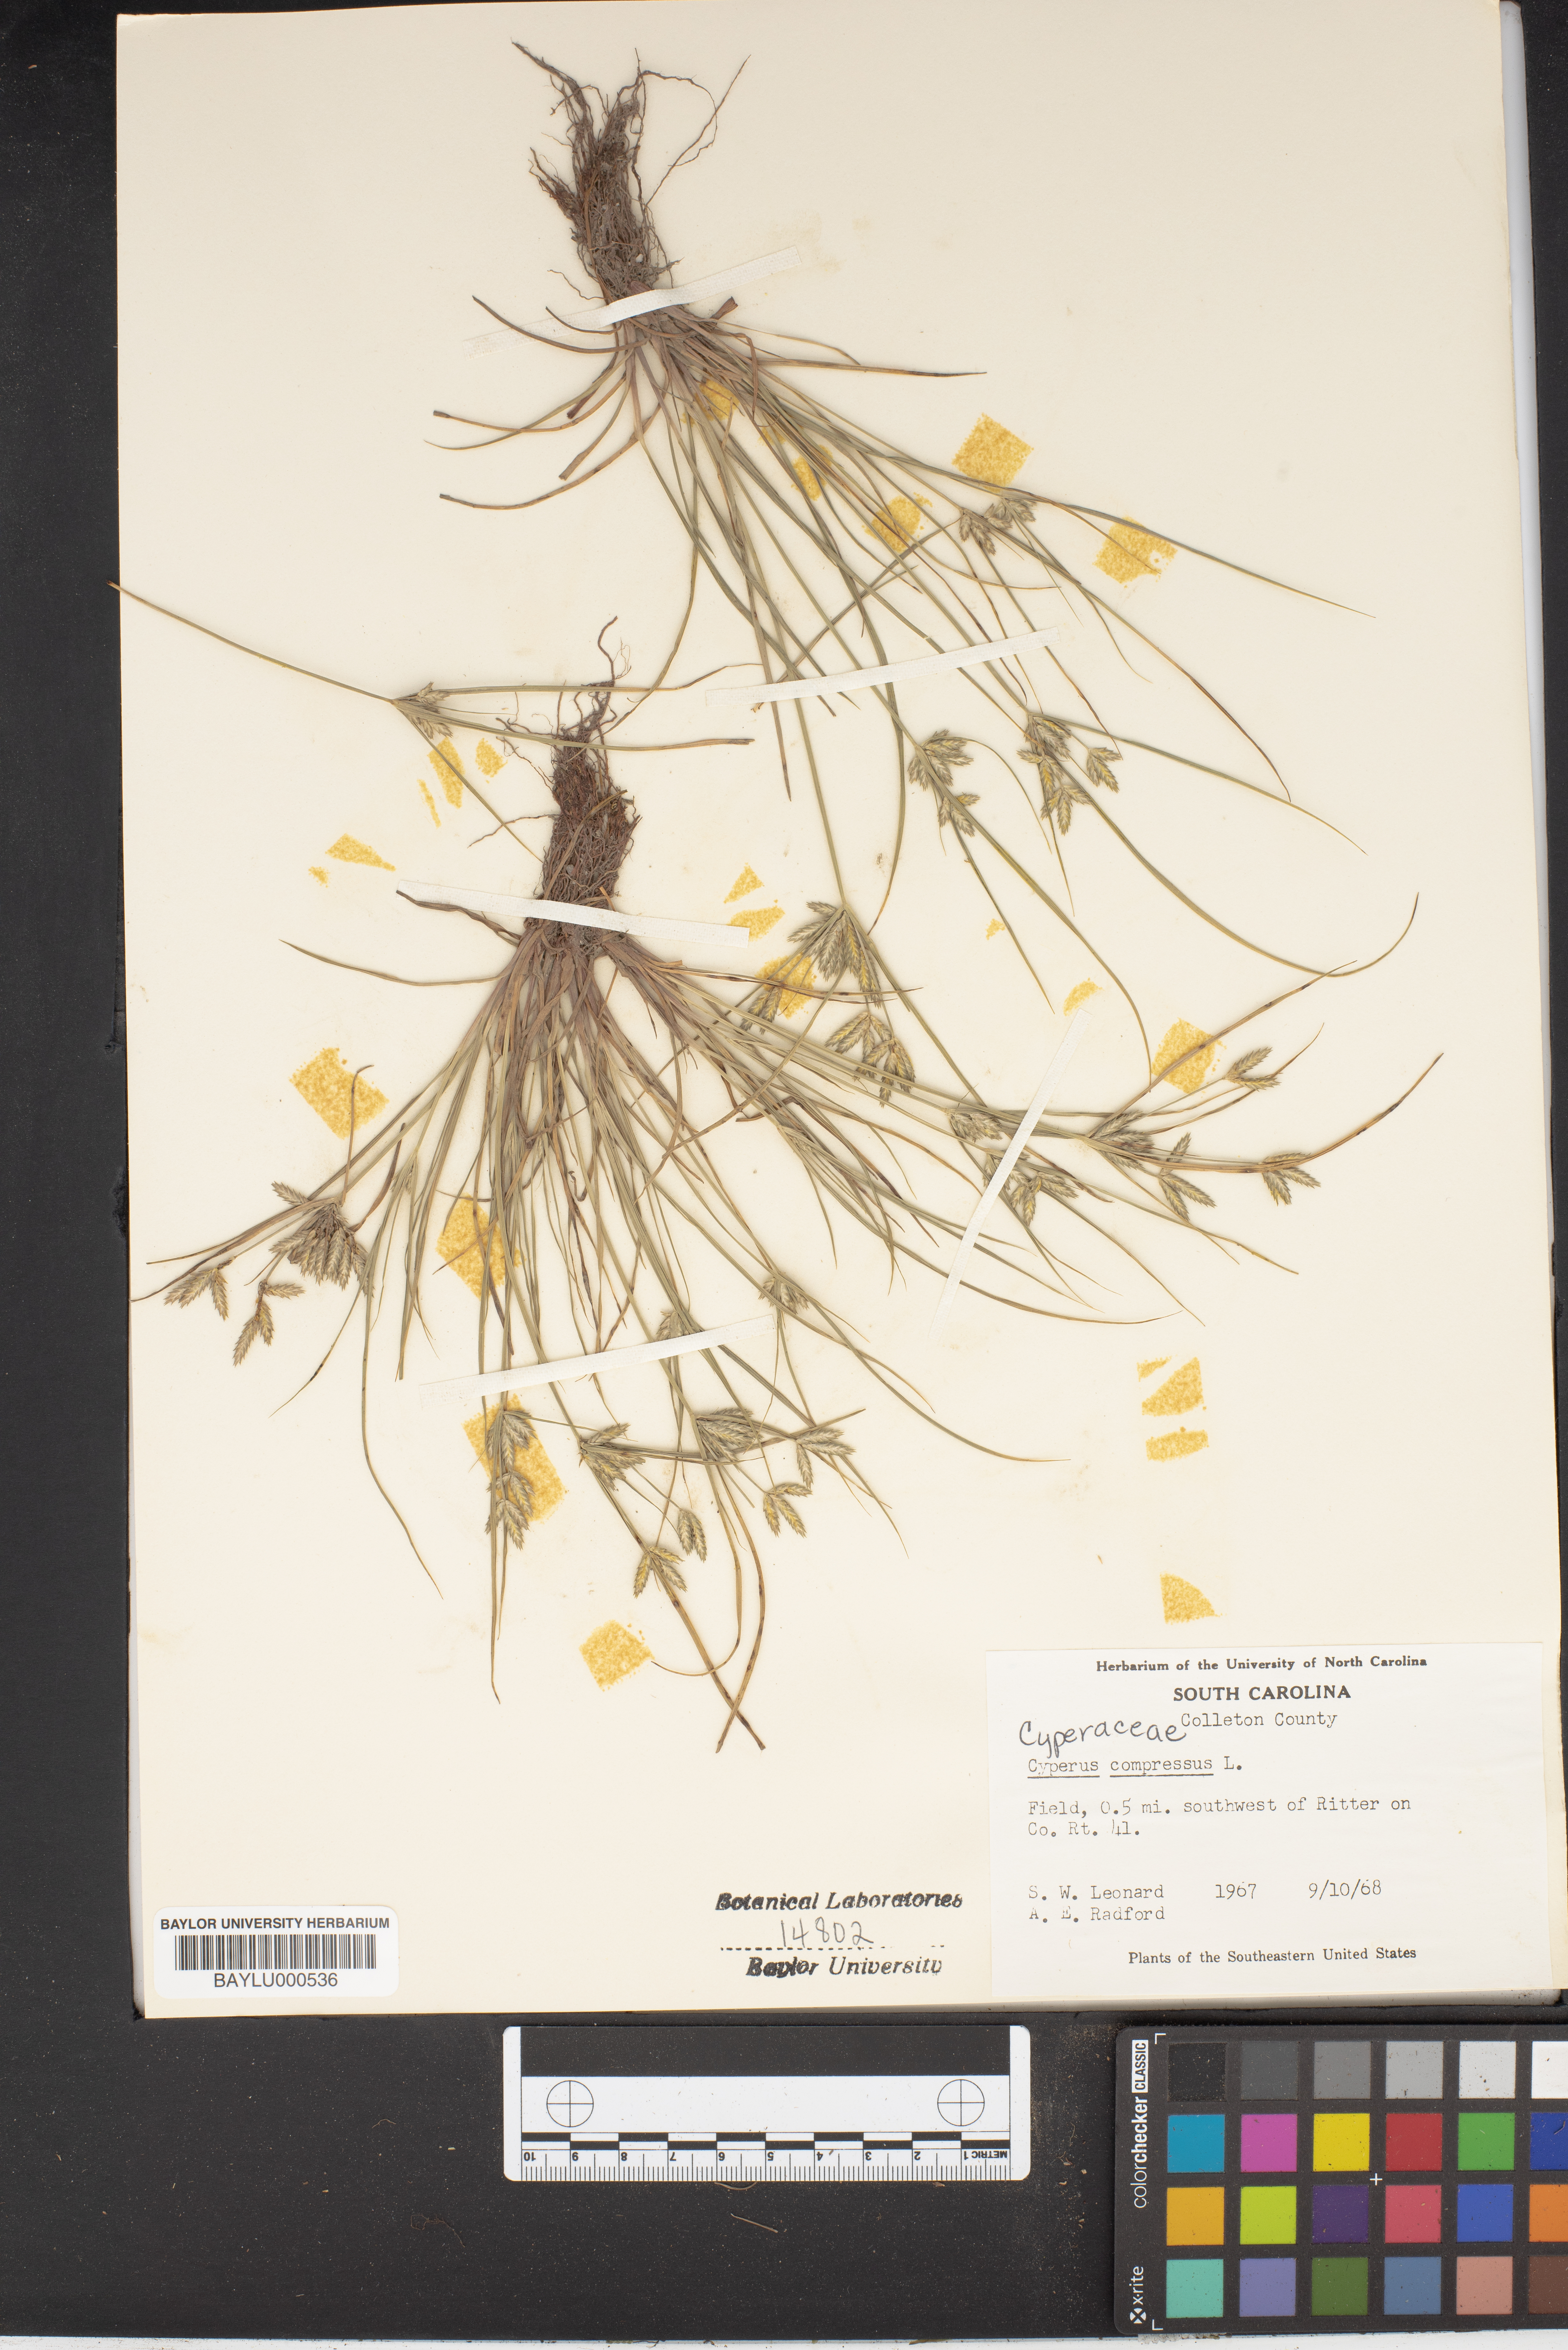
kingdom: Plantae
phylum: Tracheophyta
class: Liliopsida
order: Poales
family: Cyperaceae
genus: Cyperus
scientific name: Cyperus compressus
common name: Poorland flatsedge
